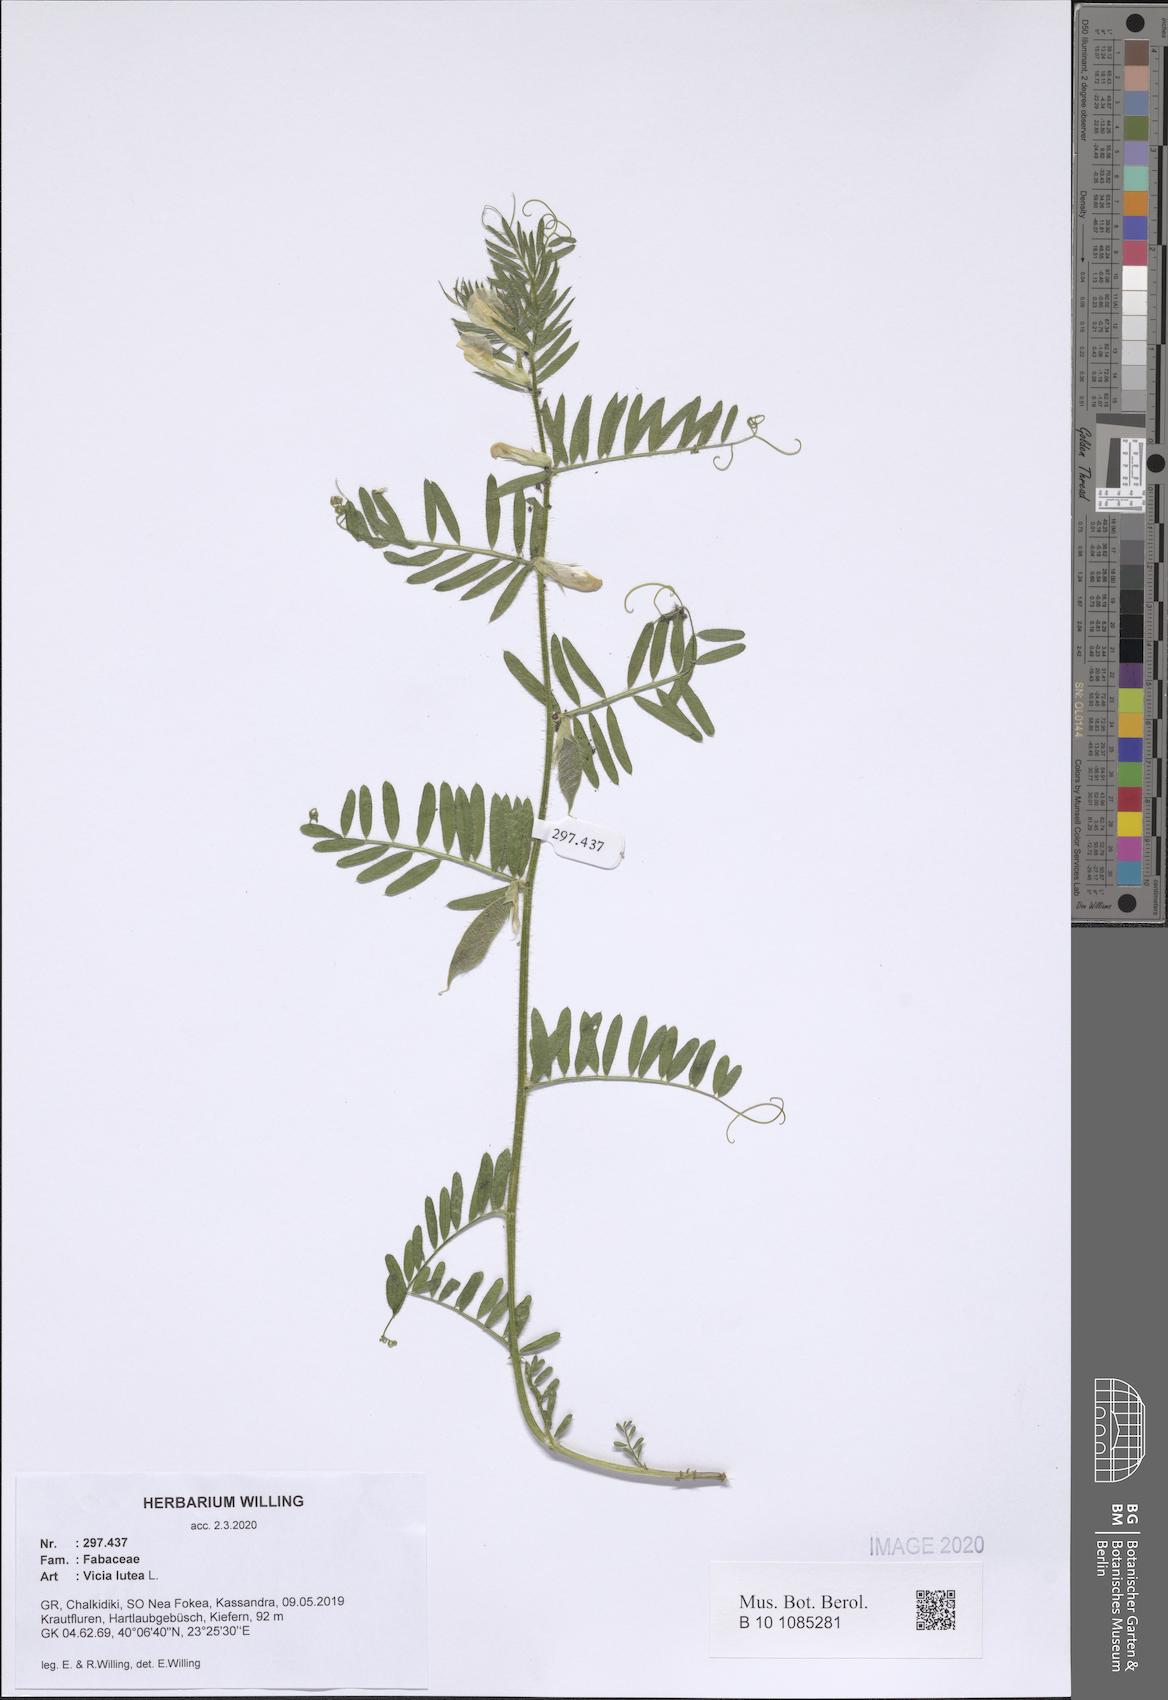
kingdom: Plantae
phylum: Tracheophyta
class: Magnoliopsida
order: Fabales
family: Fabaceae
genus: Vicia
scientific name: Vicia lutea
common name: Smooth yellow vetch
